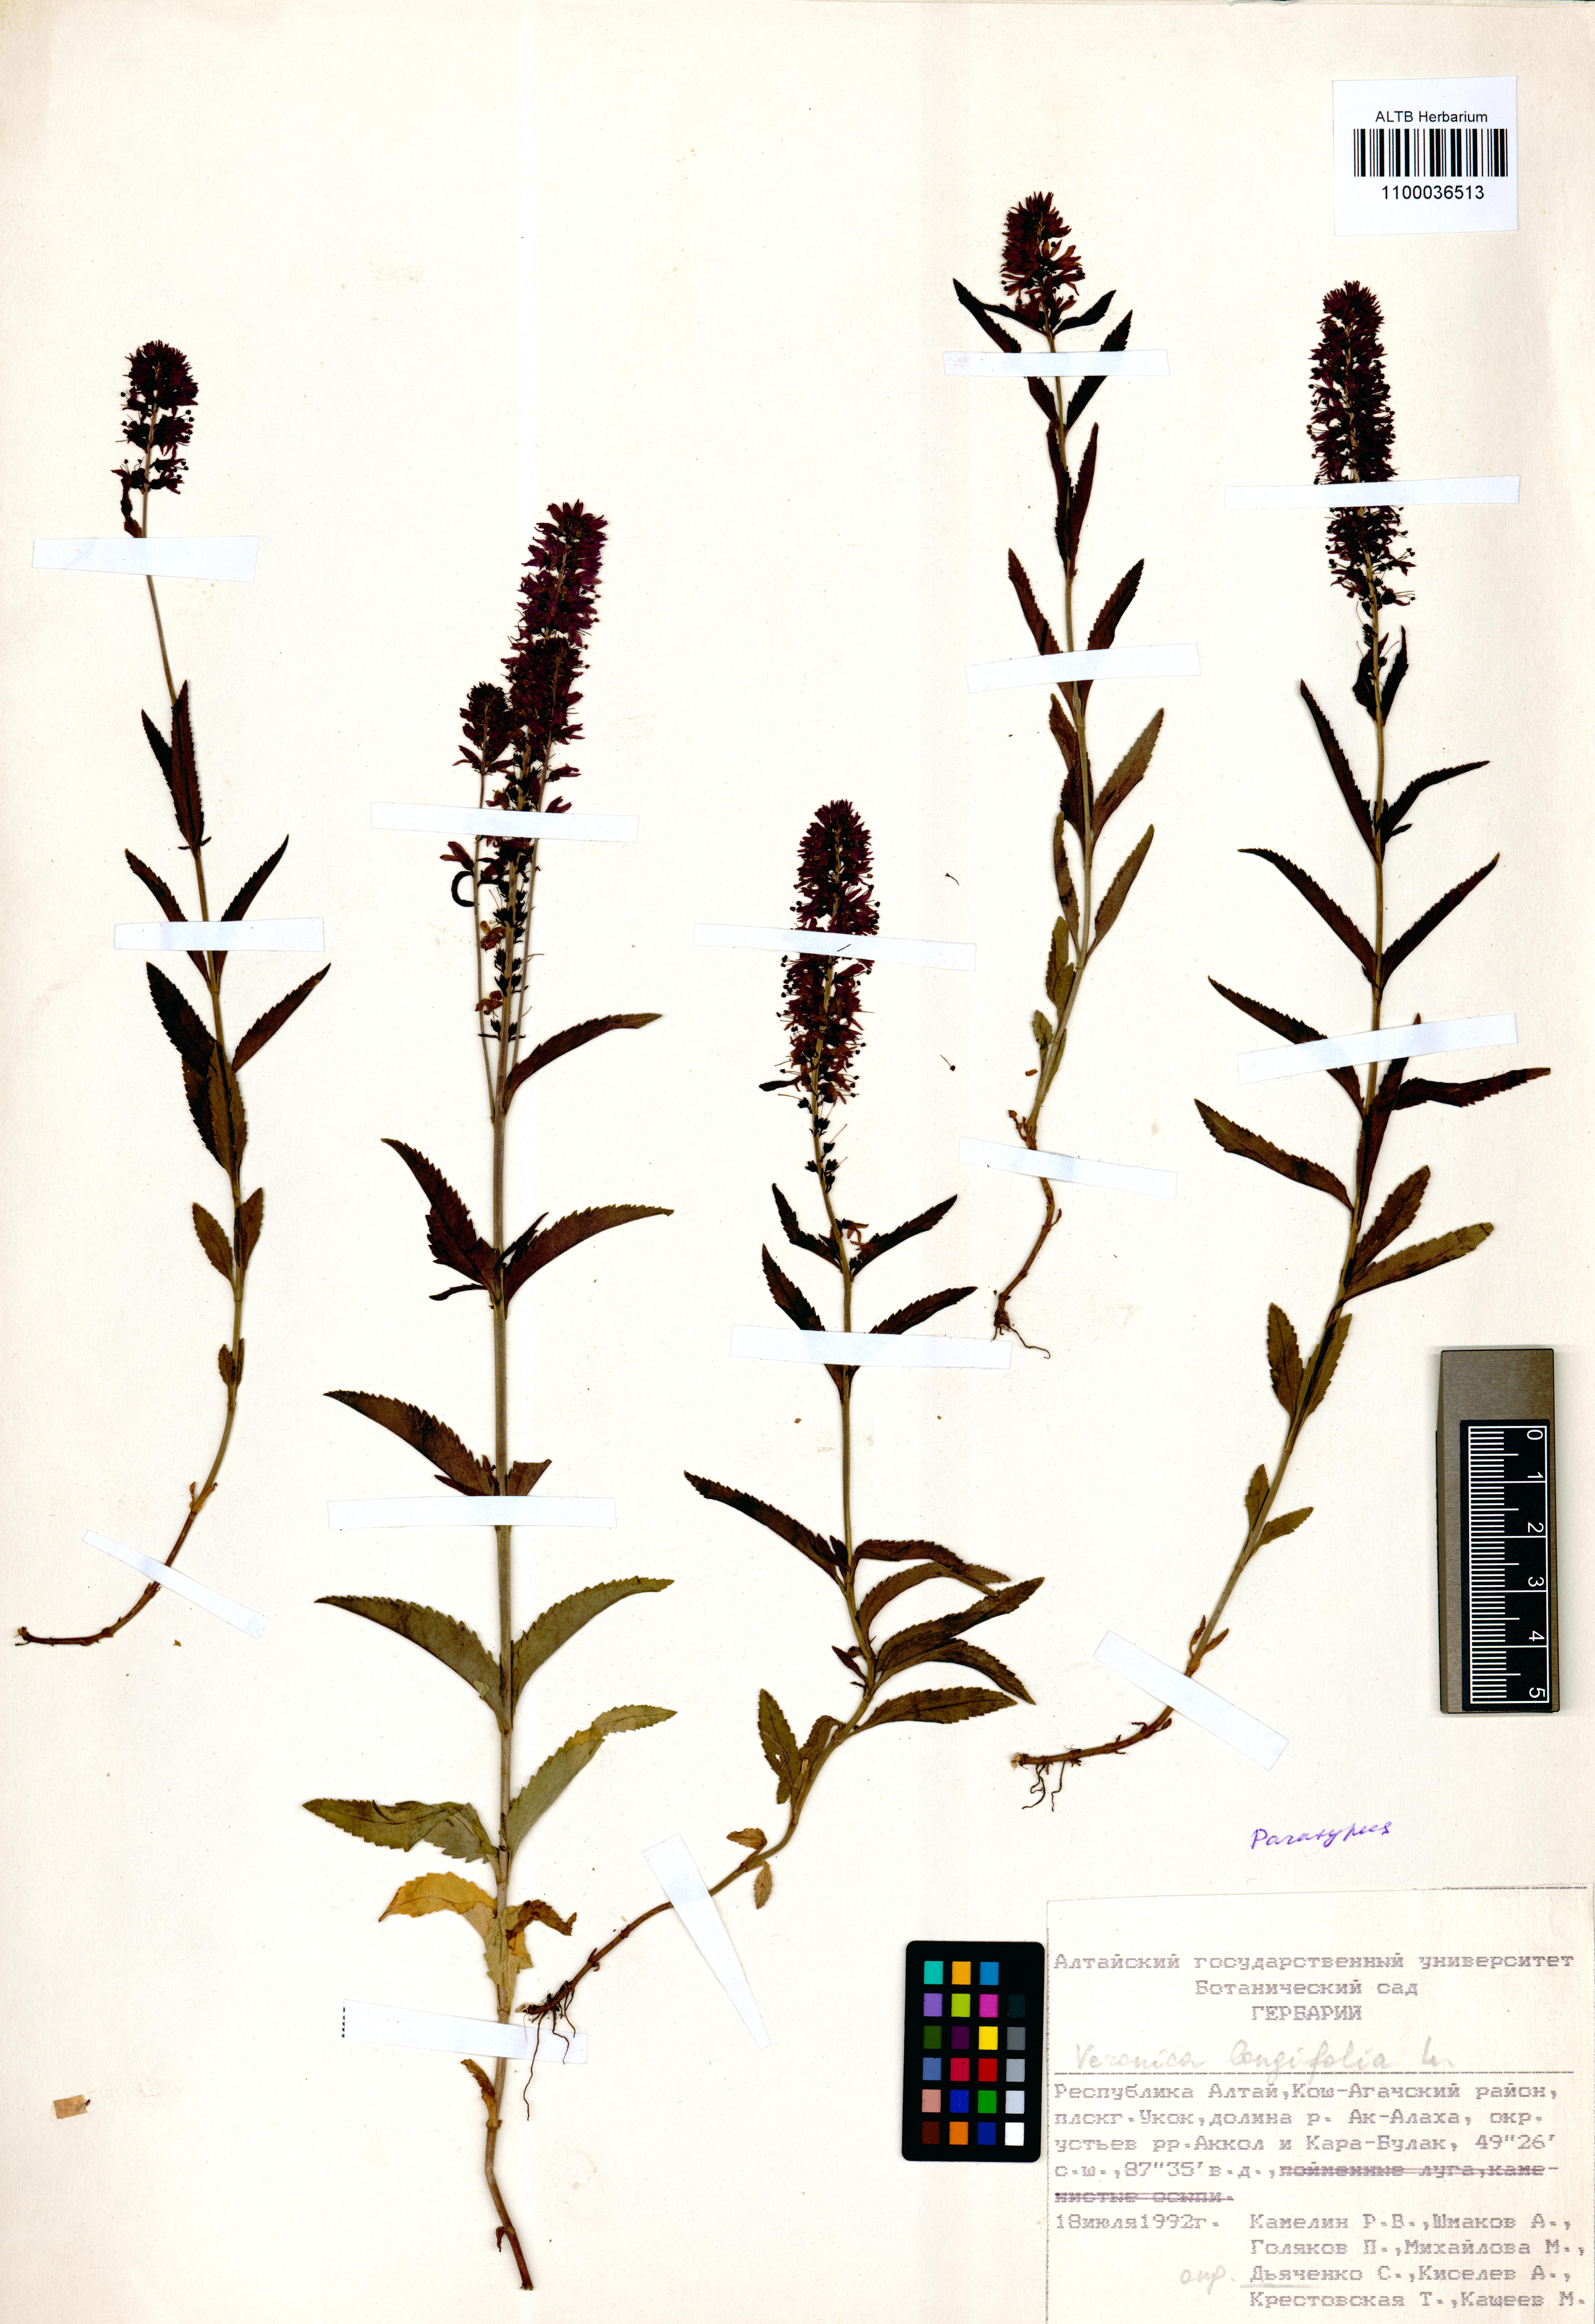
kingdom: Plantae
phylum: Tracheophyta
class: Magnoliopsida
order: Lamiales
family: Plantaginaceae
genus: Veronica
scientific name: Veronica longifolia
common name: Garden speedwell
